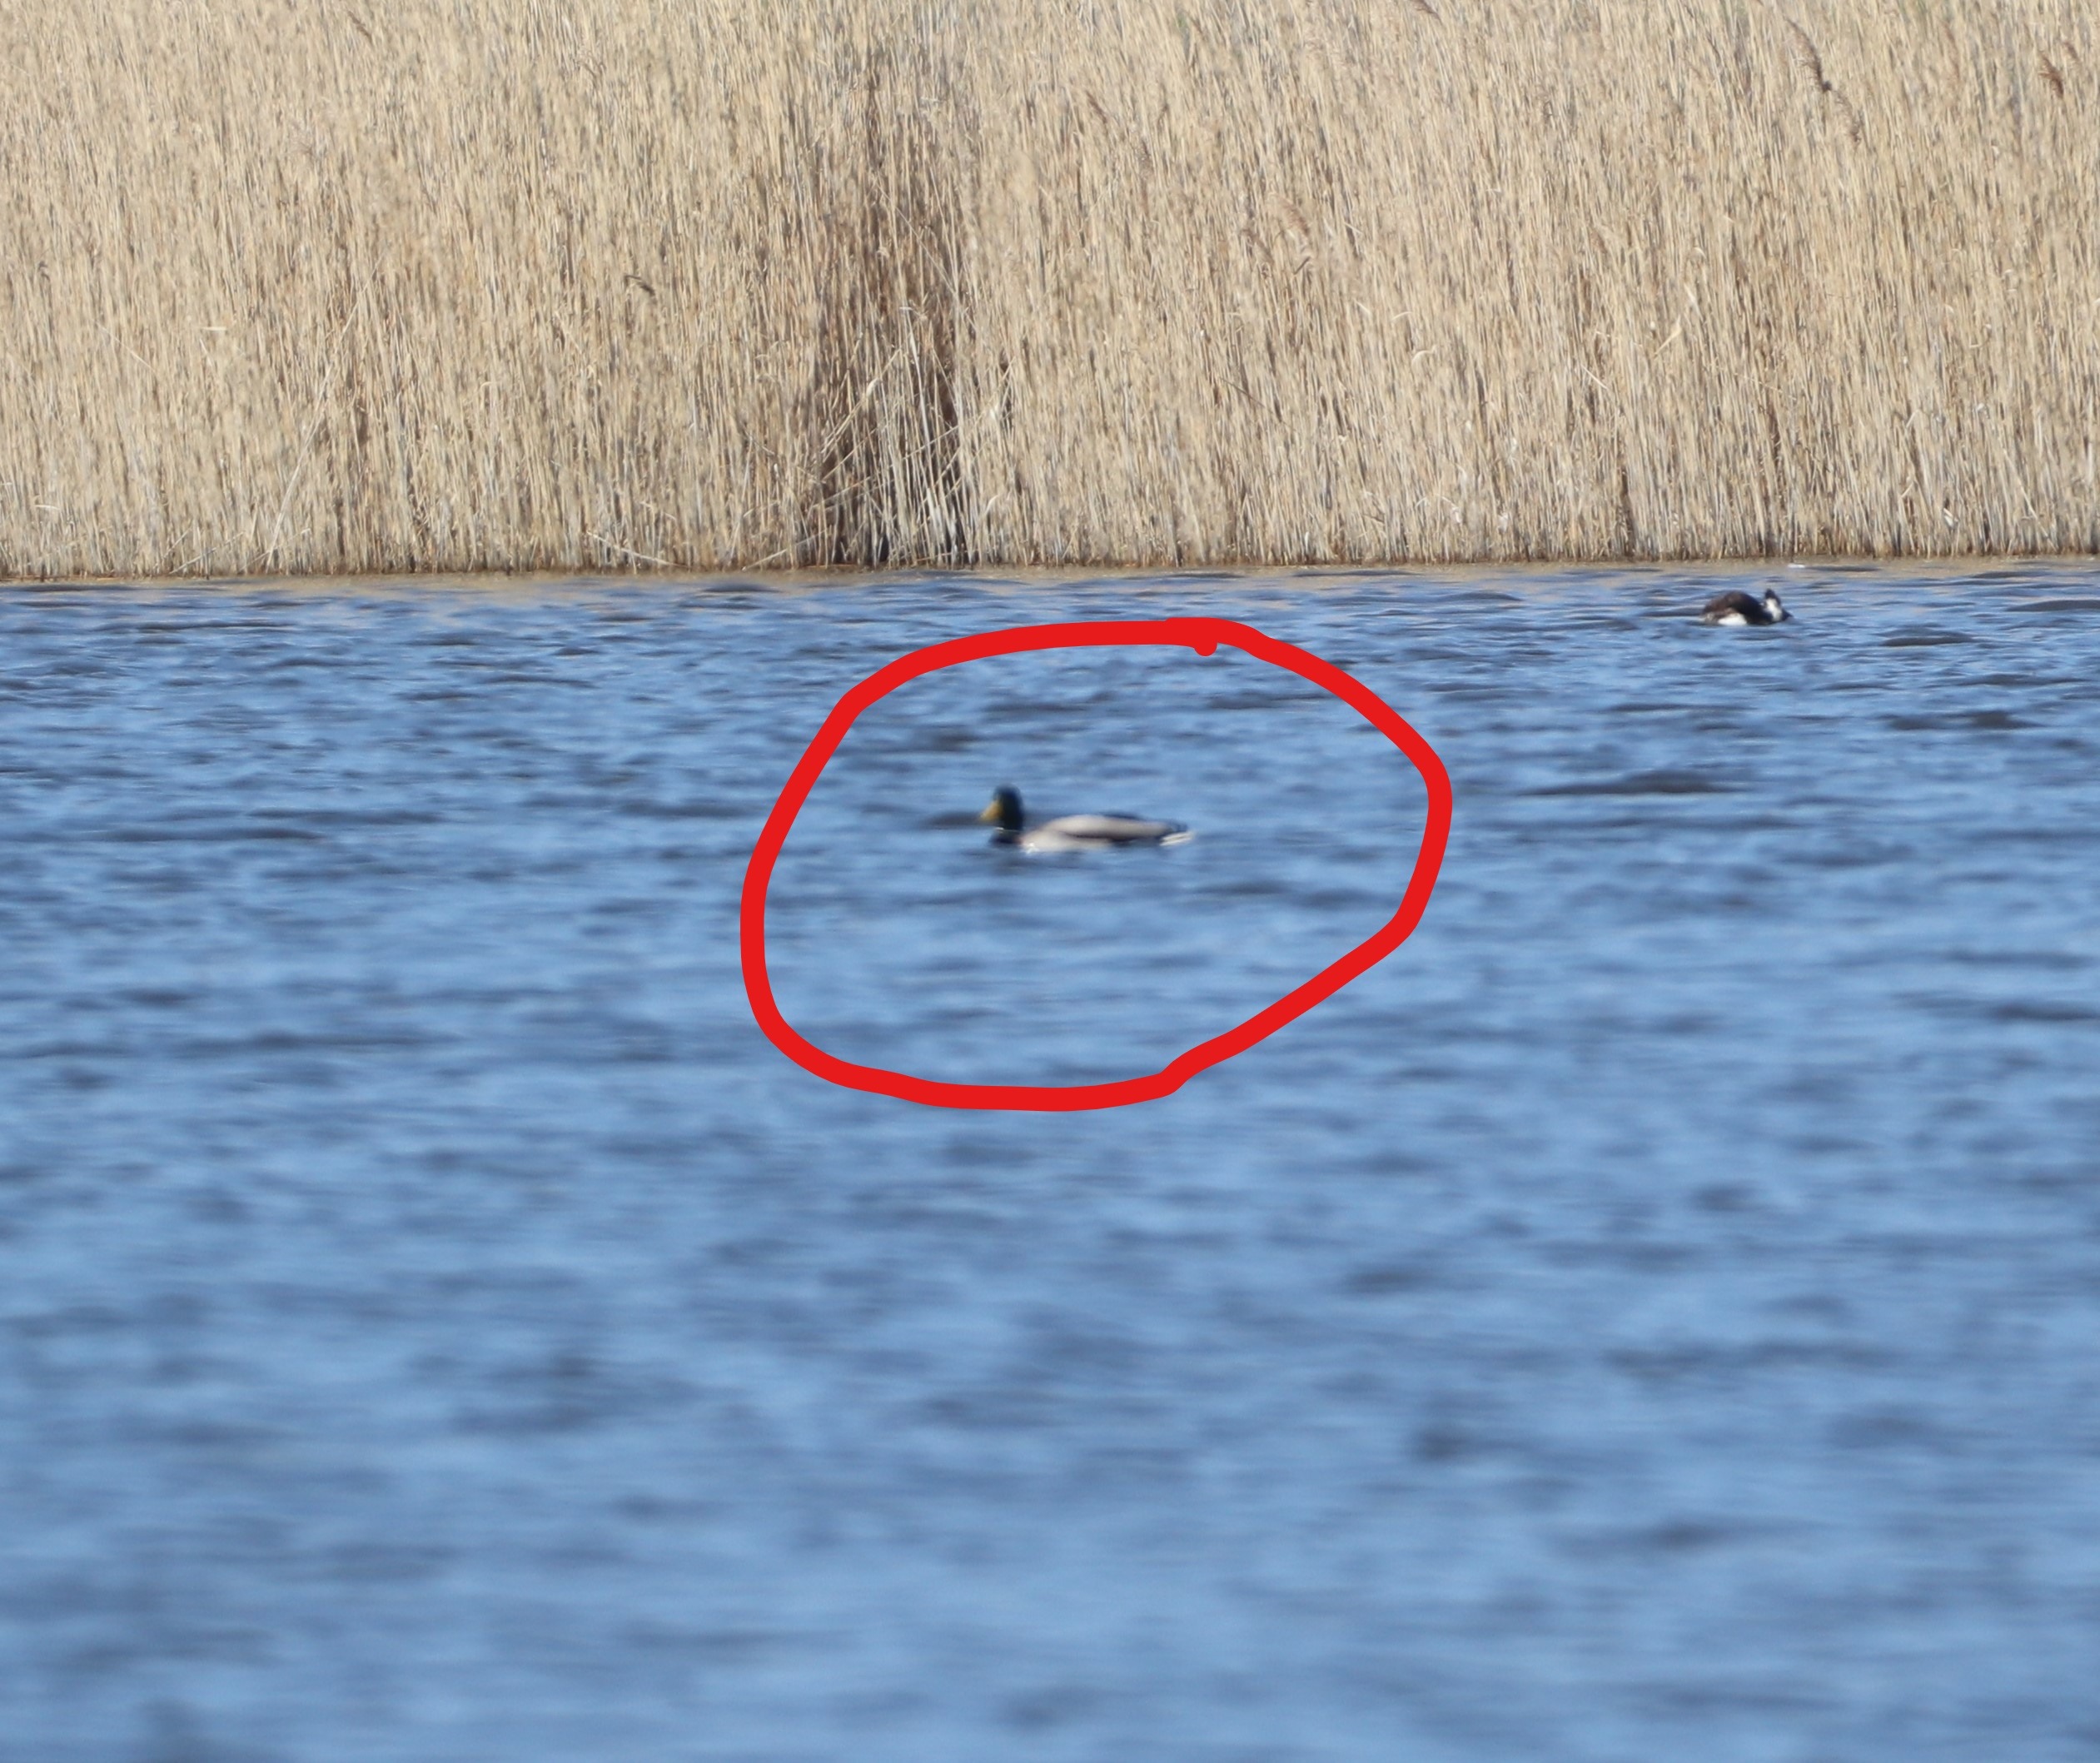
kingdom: Animalia
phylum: Chordata
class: Aves
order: Anseriformes
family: Anatidae
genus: Anas
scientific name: Anas platyrhynchos
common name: Gråand
